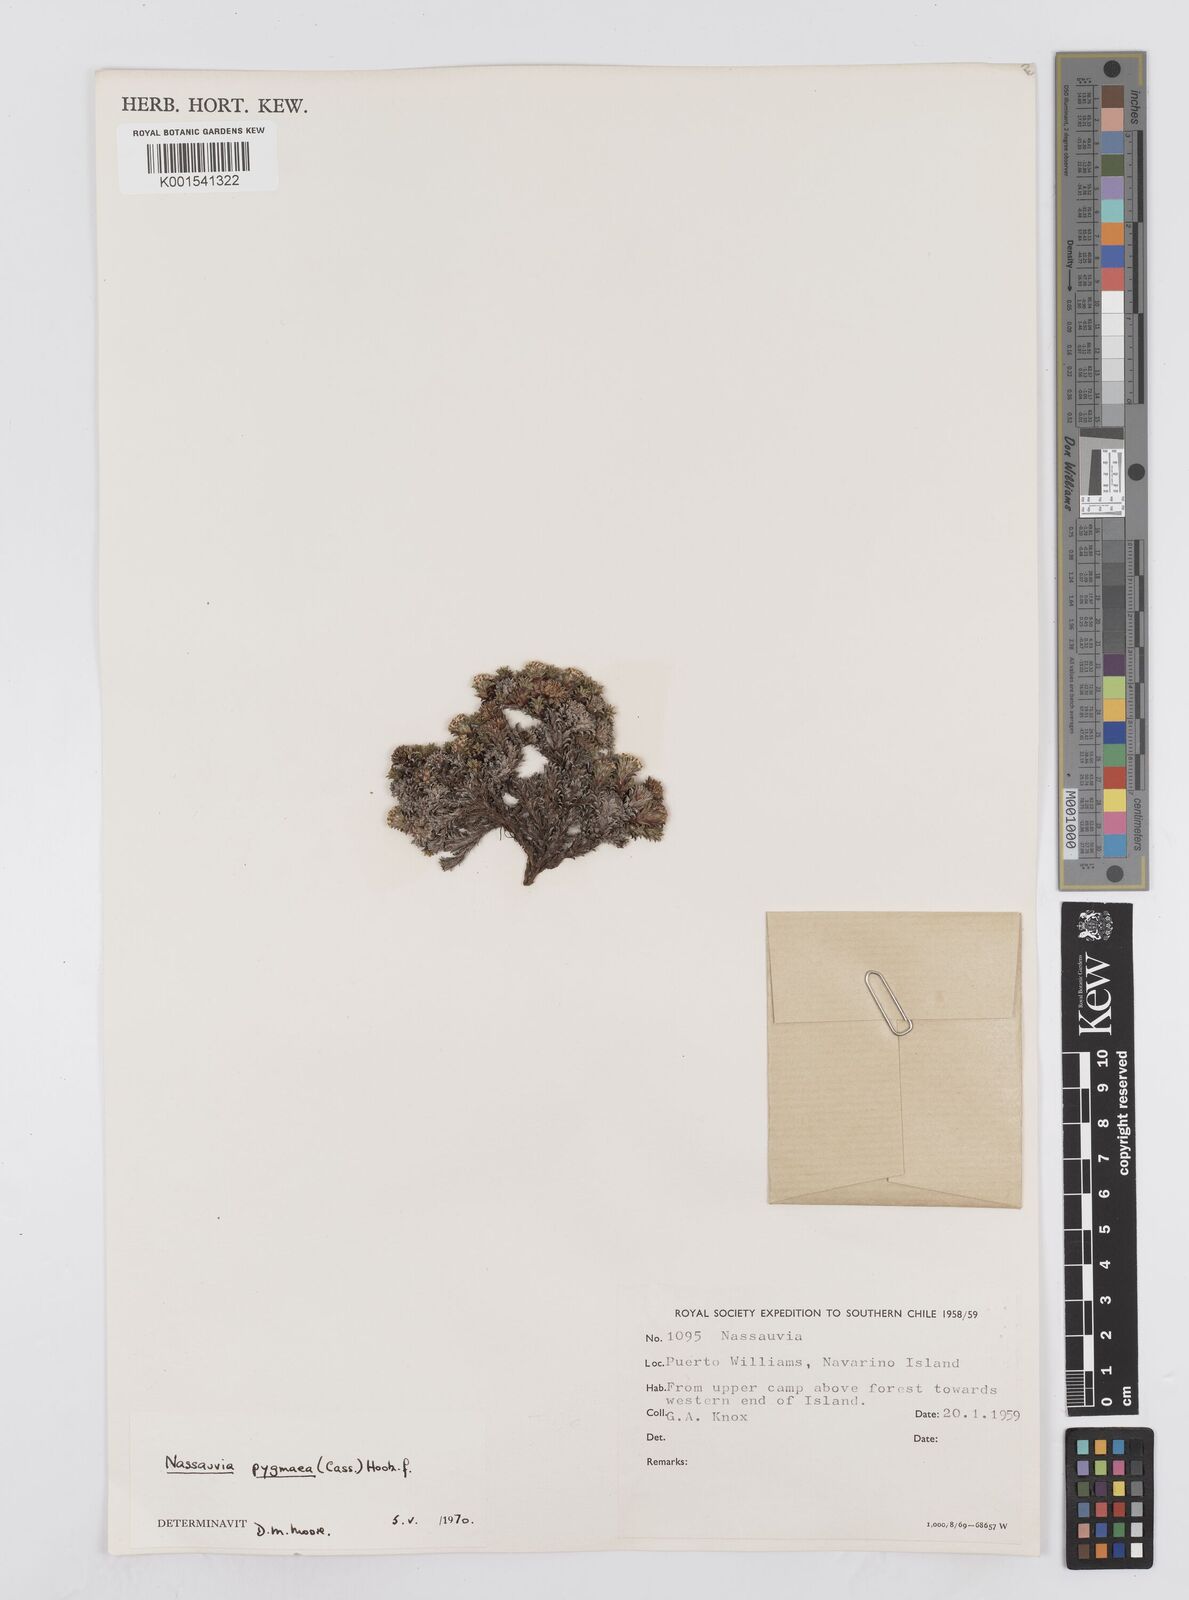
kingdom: Plantae
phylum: Tracheophyta
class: Magnoliopsida
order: Asterales
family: Asteraceae
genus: Nassauvia
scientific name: Nassauvia pygmaea
